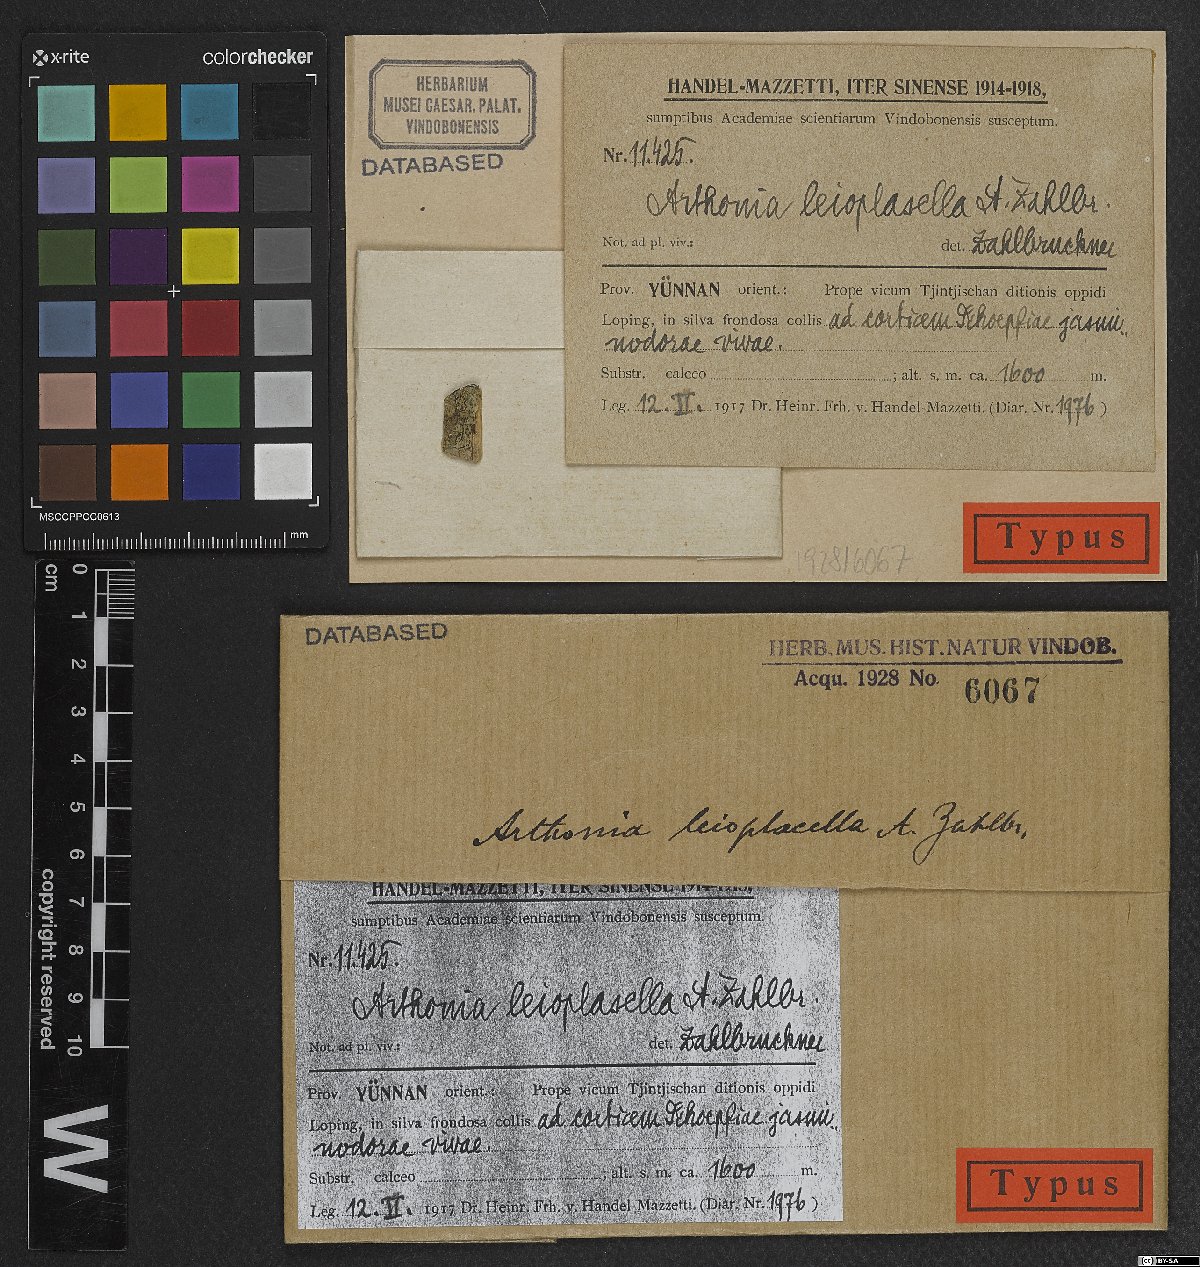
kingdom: Fungi
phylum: Ascomycota
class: Arthoniomycetes
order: Arthoniales
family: Arthoniaceae
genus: Arthonia
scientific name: Arthonia
